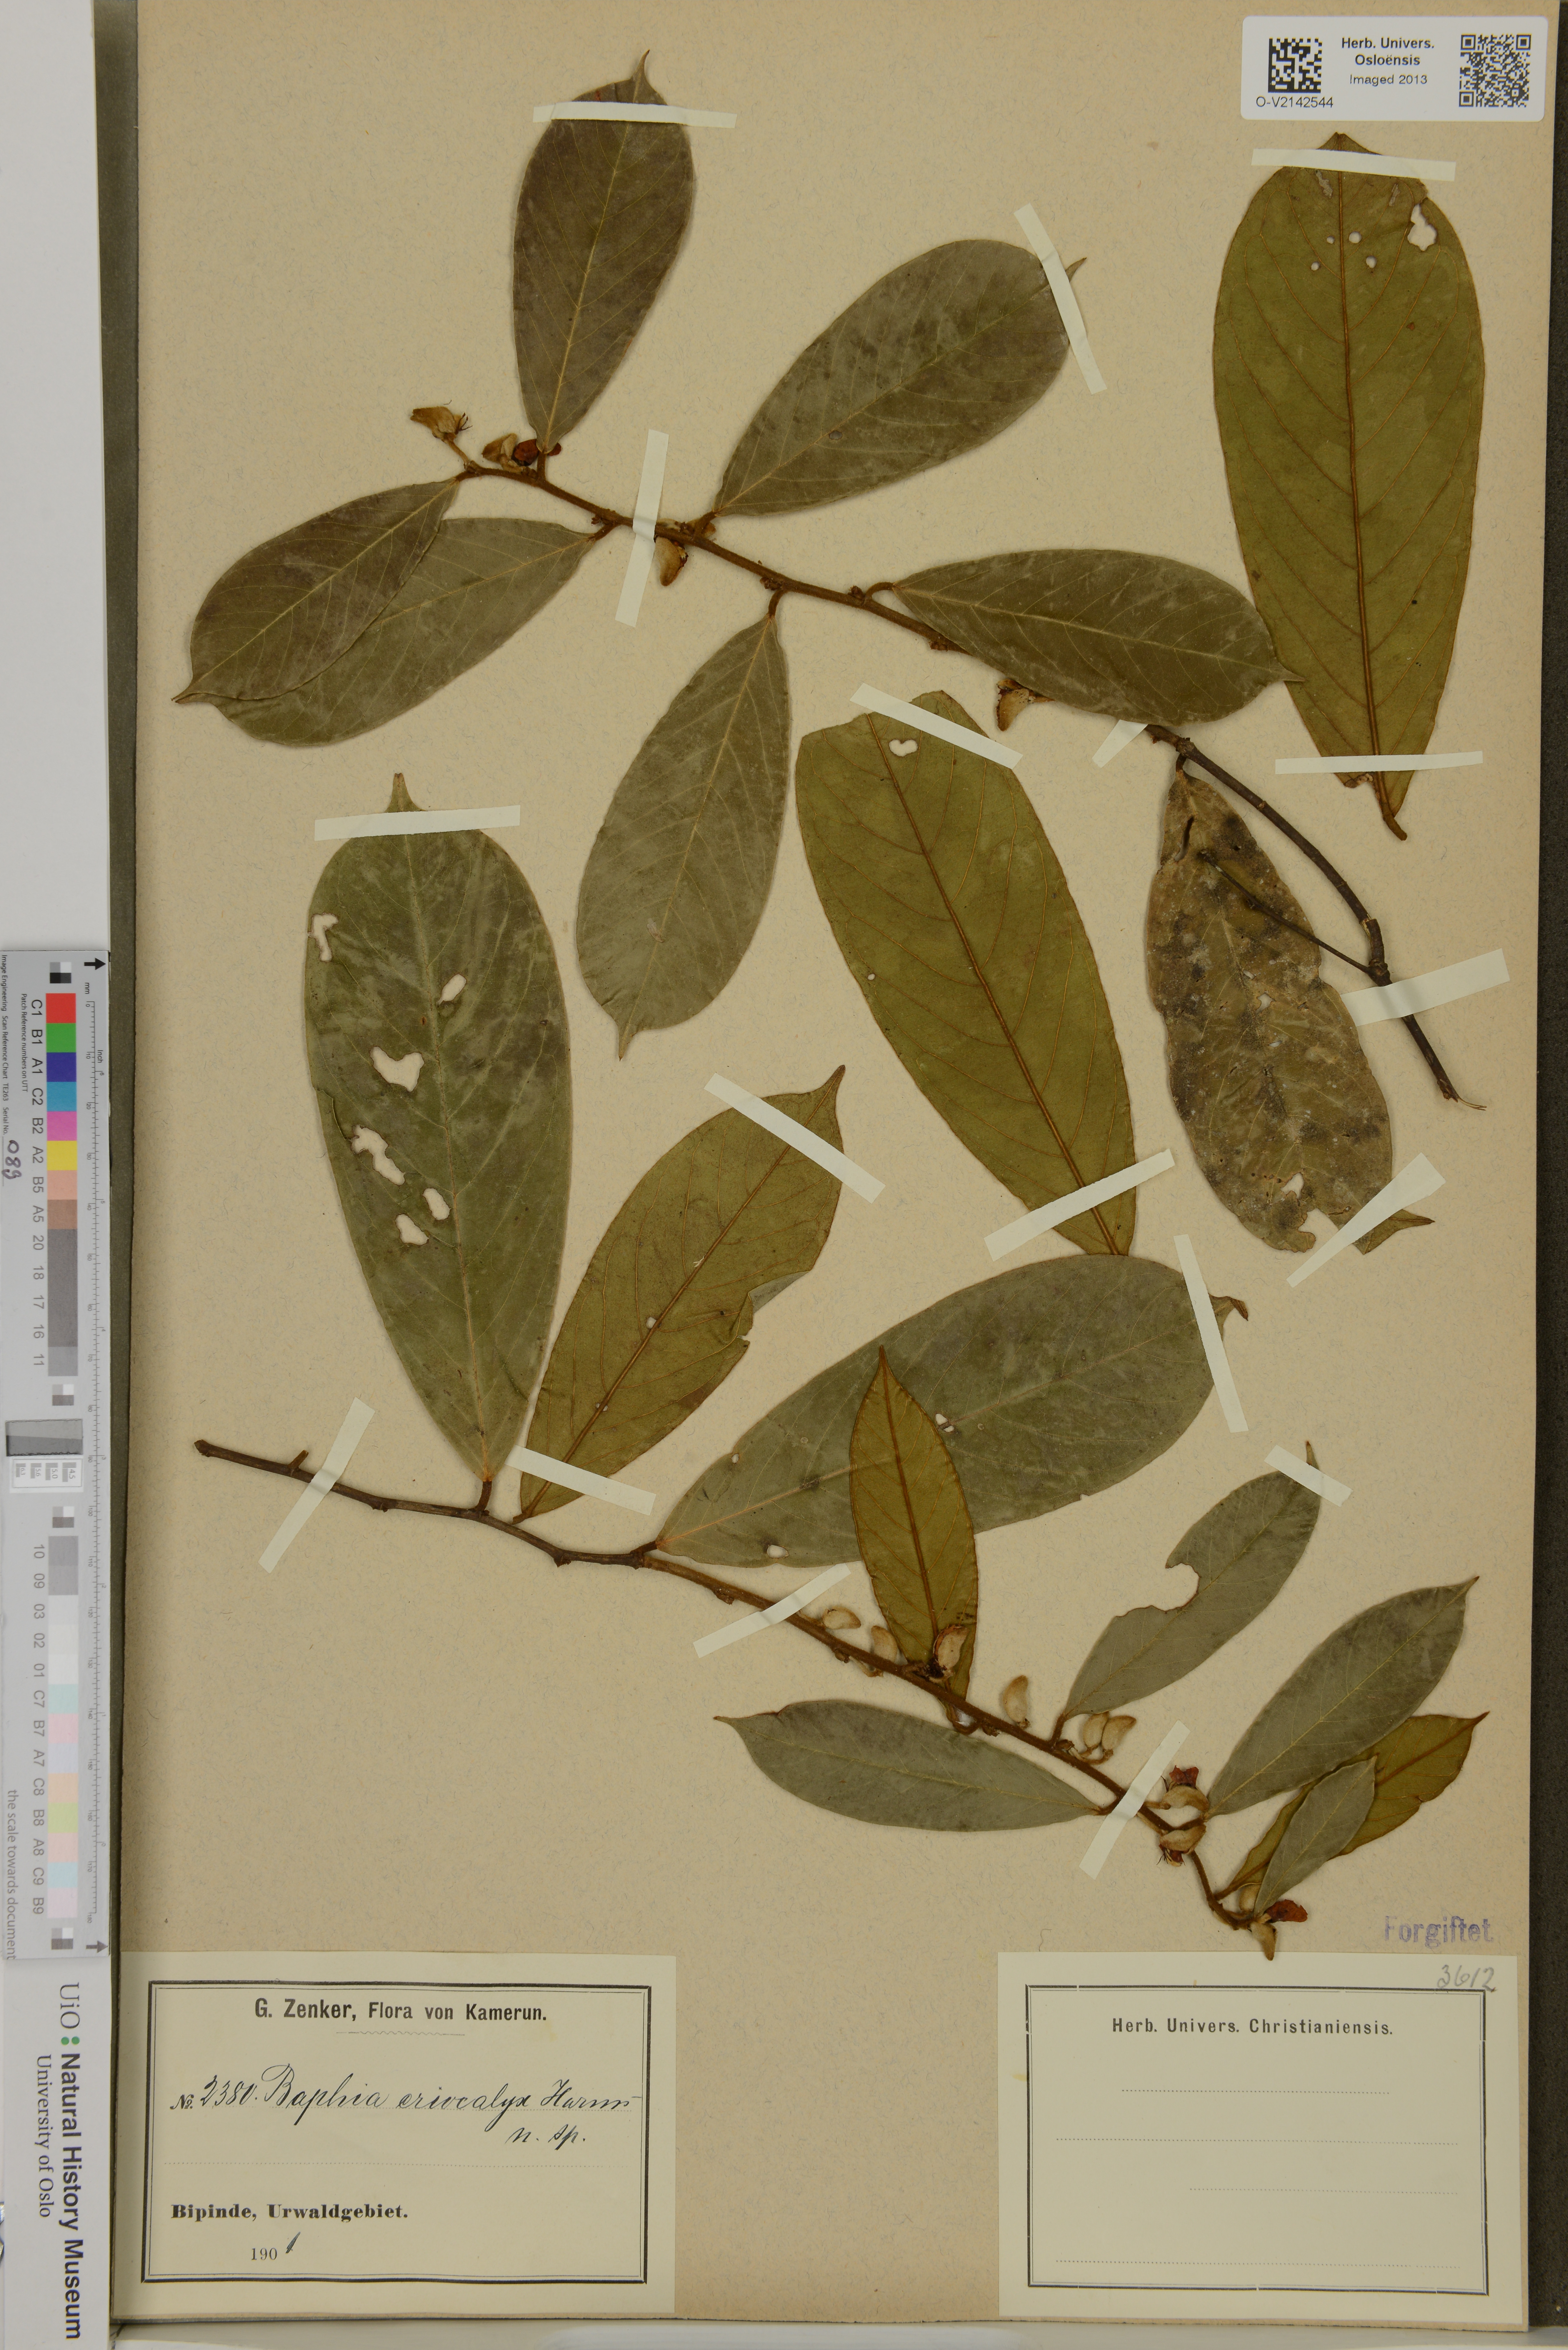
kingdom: Plantae
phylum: Tracheophyta
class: Magnoliopsida
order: Fabales
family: Fabaceae
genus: Baphia
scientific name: Baphia eriocalyx
